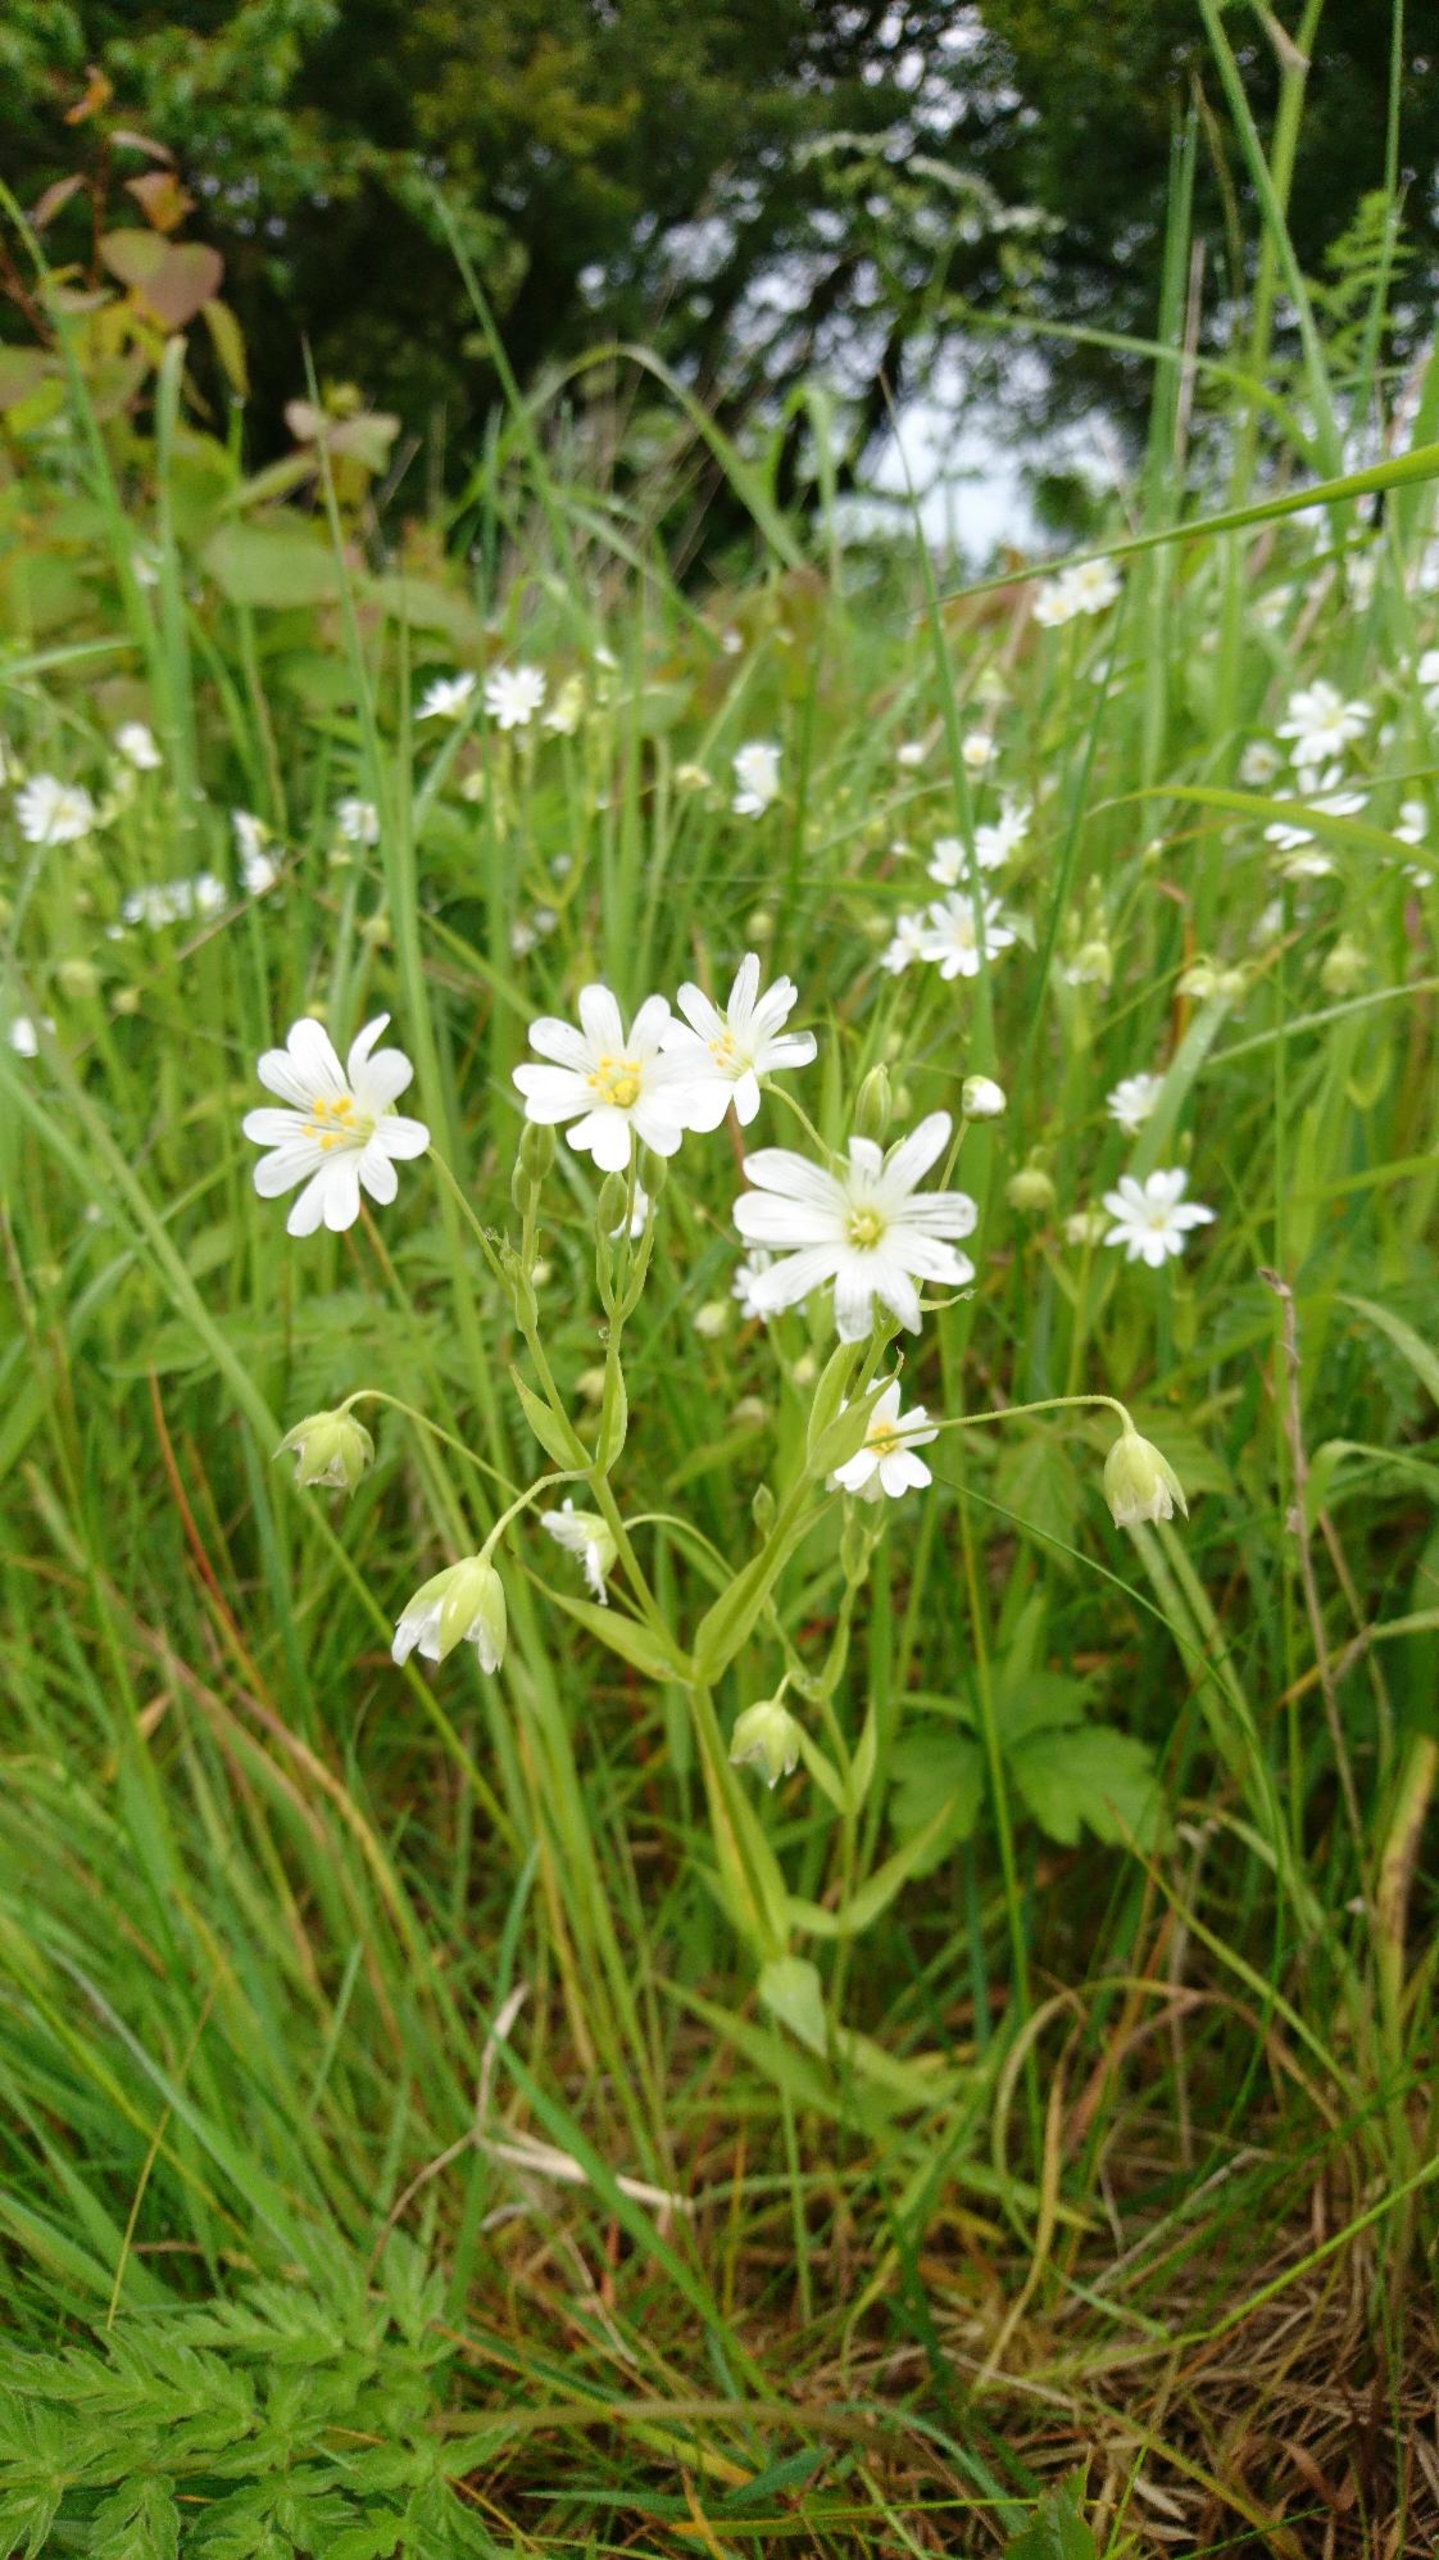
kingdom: Plantae
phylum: Tracheophyta
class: Magnoliopsida
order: Caryophyllales
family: Caryophyllaceae
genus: Rabelera
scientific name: Rabelera holostea
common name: Stor fladstjerne
